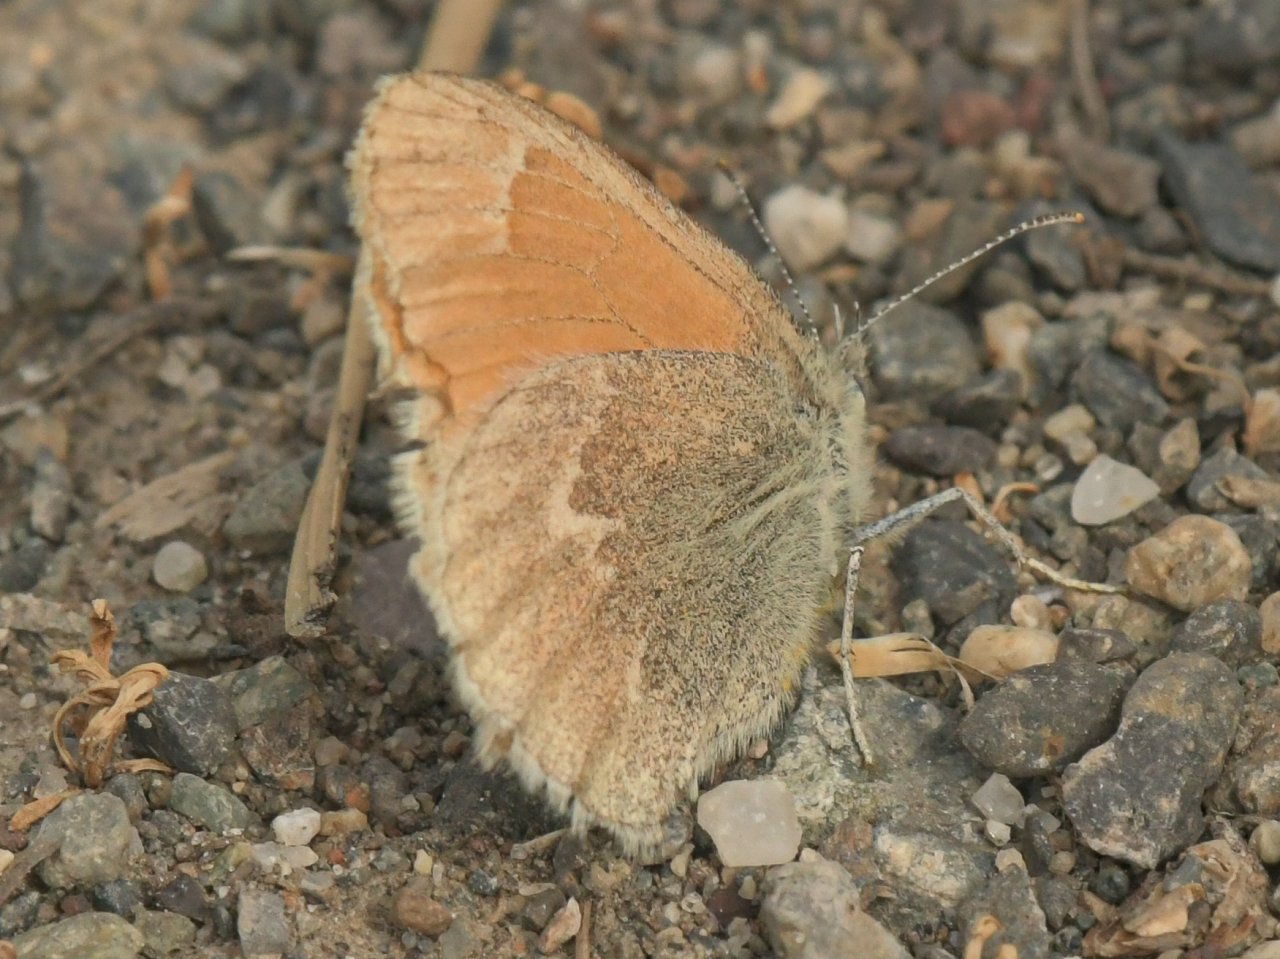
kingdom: Animalia
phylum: Arthropoda
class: Insecta
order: Lepidoptera
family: Nymphalidae
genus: Coenonympha
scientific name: Coenonympha tullia
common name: Large Heath
